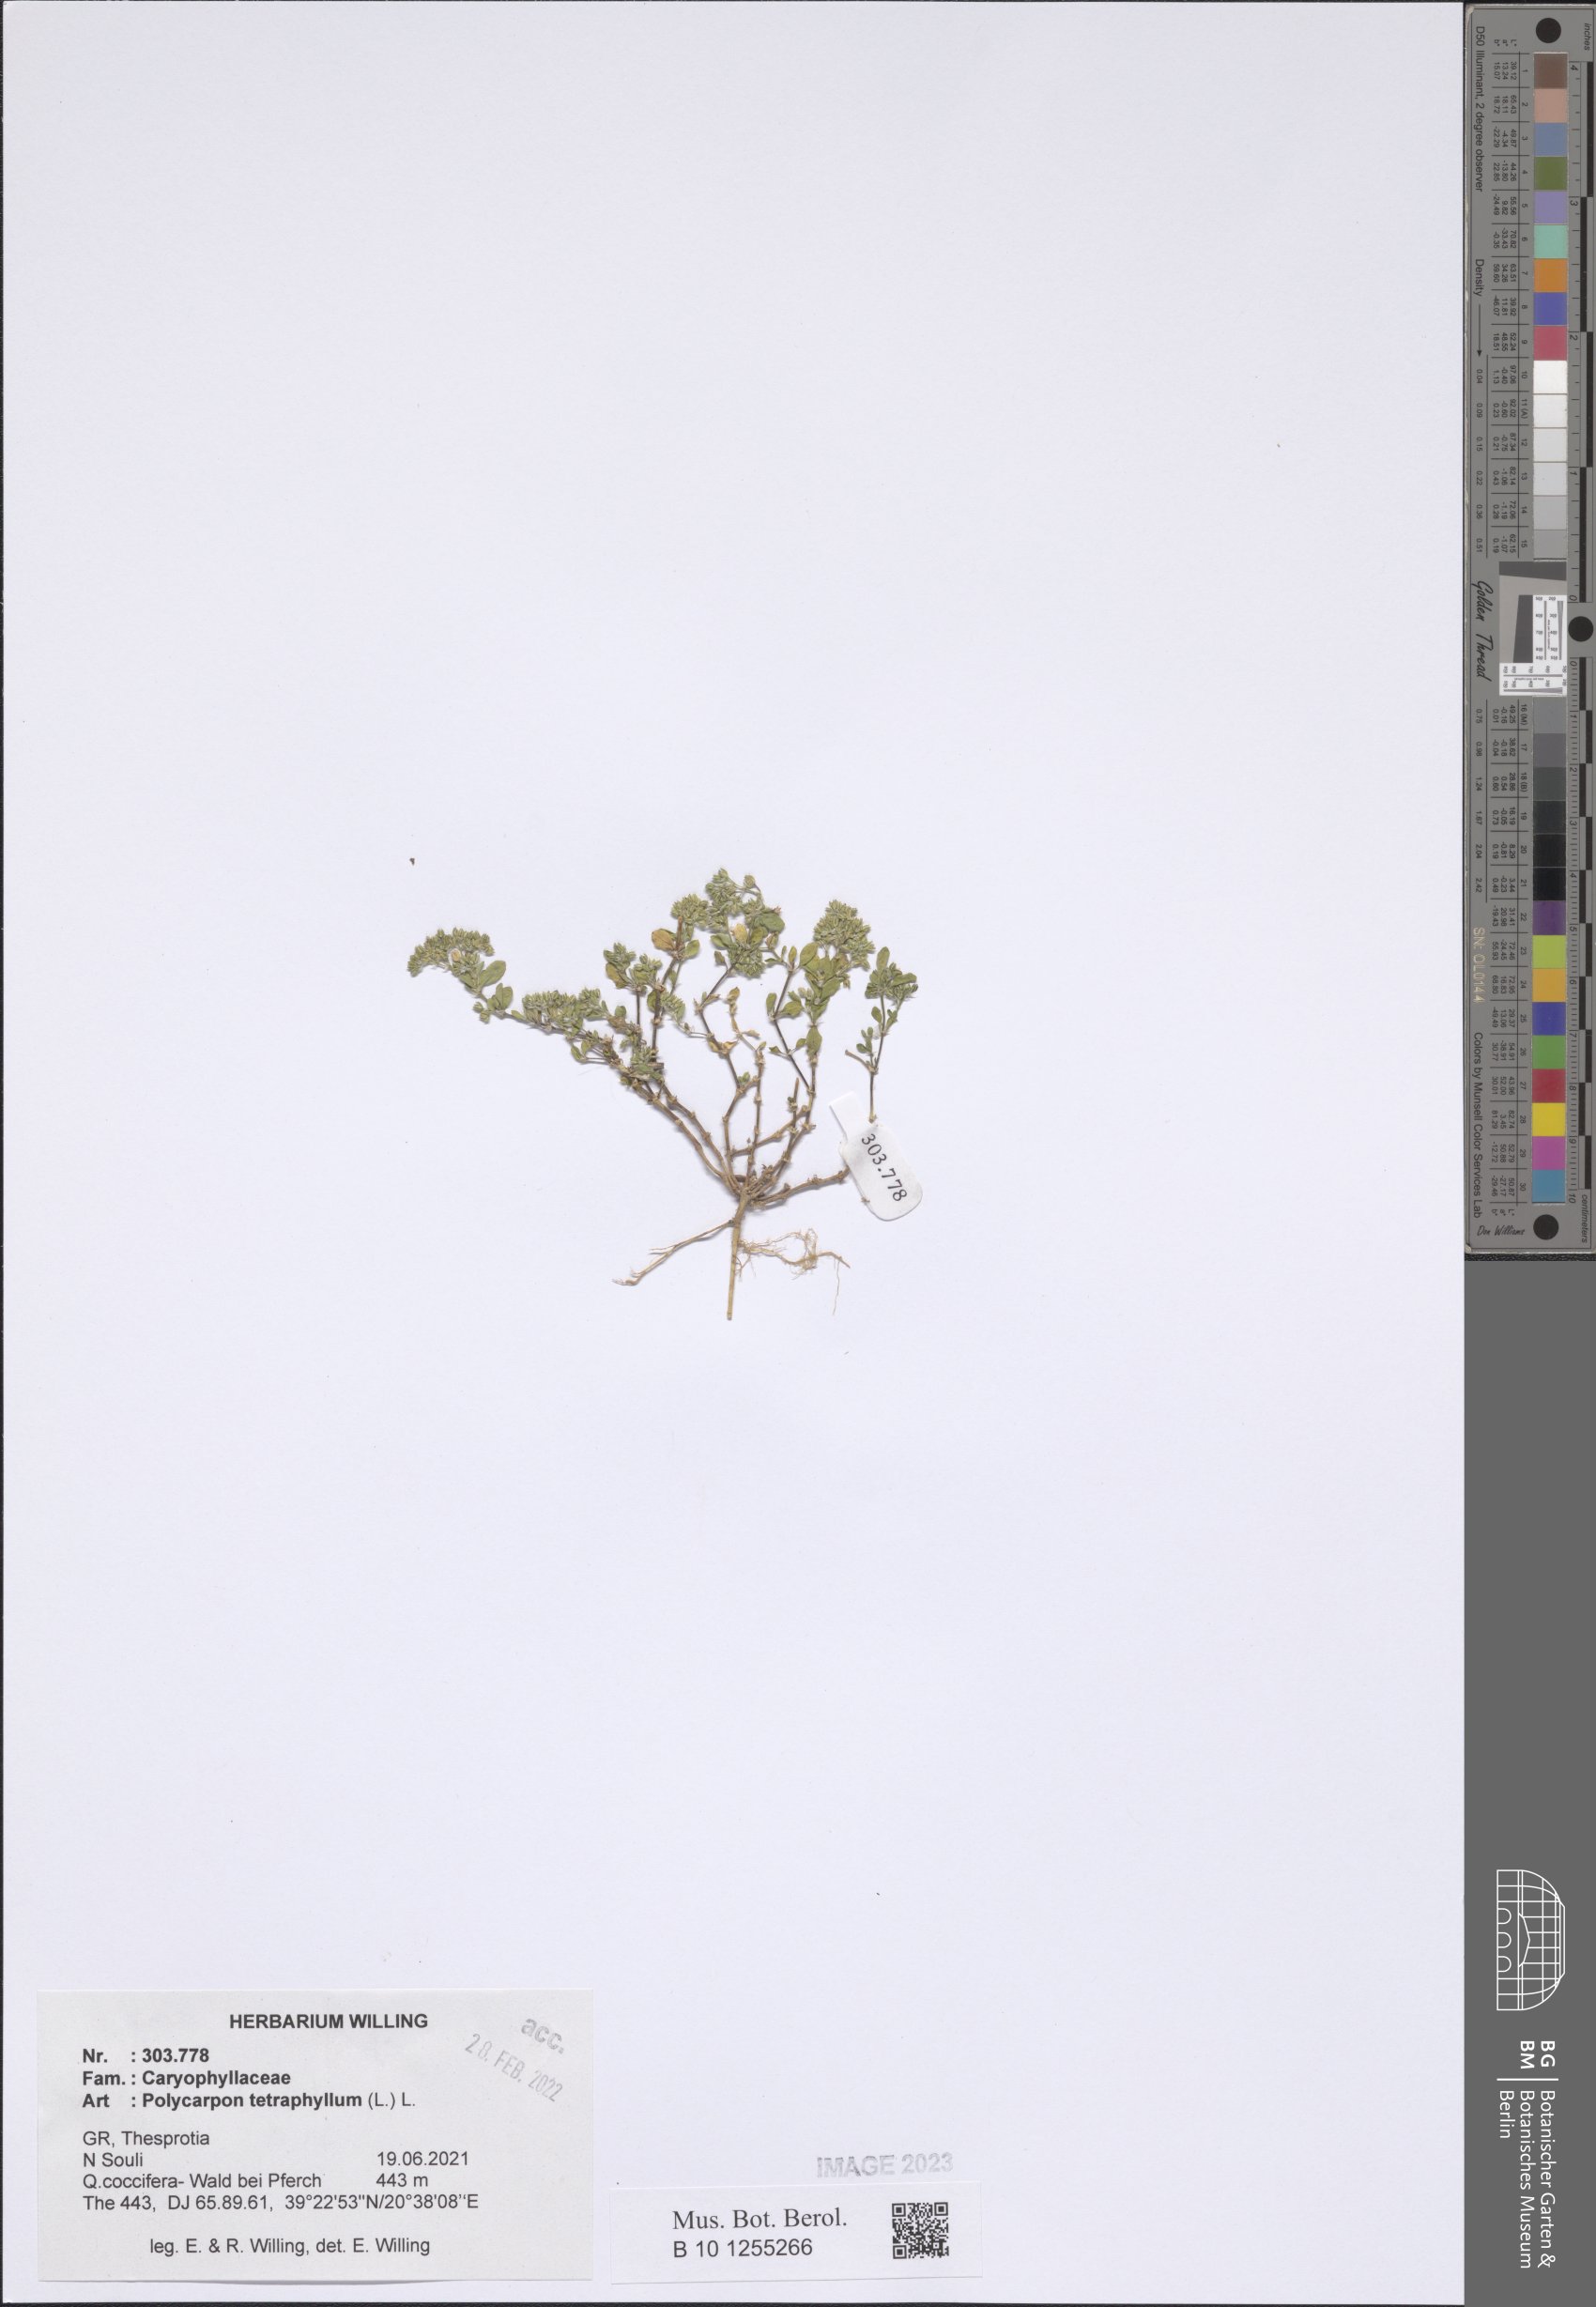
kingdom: Plantae
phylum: Tracheophyta
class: Magnoliopsida
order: Caryophyllales
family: Caryophyllaceae
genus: Polycarpon
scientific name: Polycarpon tetraphyllum
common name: Four-leaved all-seed
